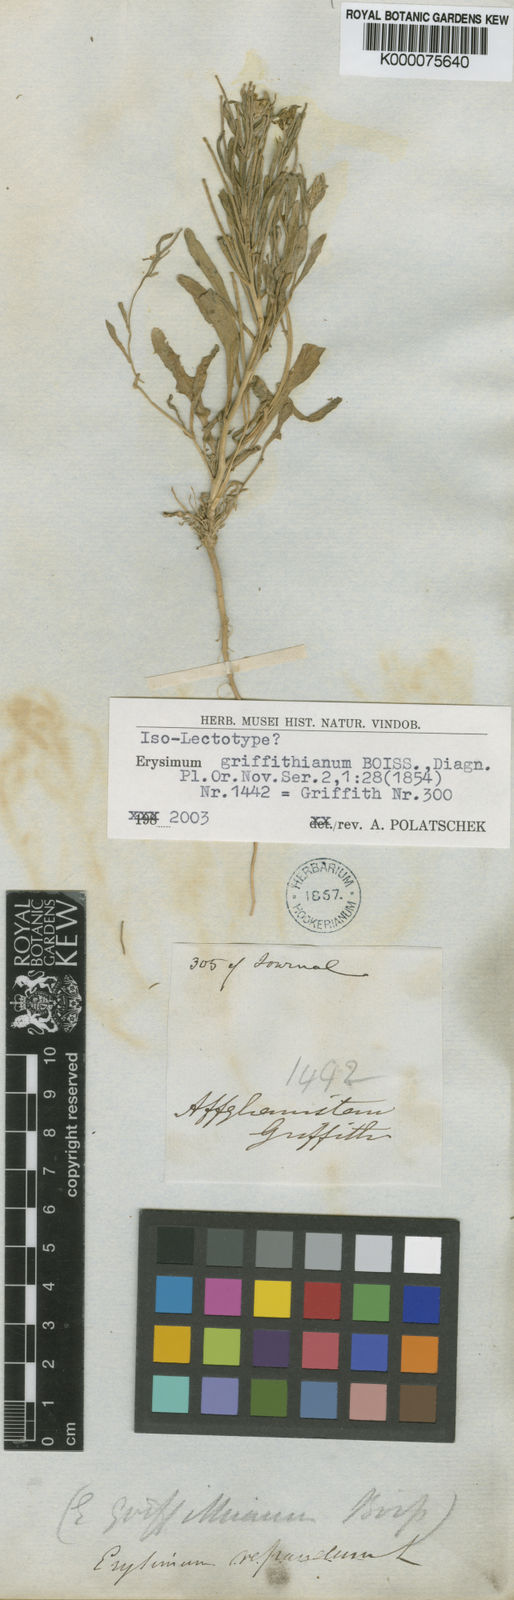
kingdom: Plantae
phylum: Tracheophyta
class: Magnoliopsida
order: Brassicales
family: Brassicaceae
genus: Erysimum
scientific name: Erysimum sisymbrioides
